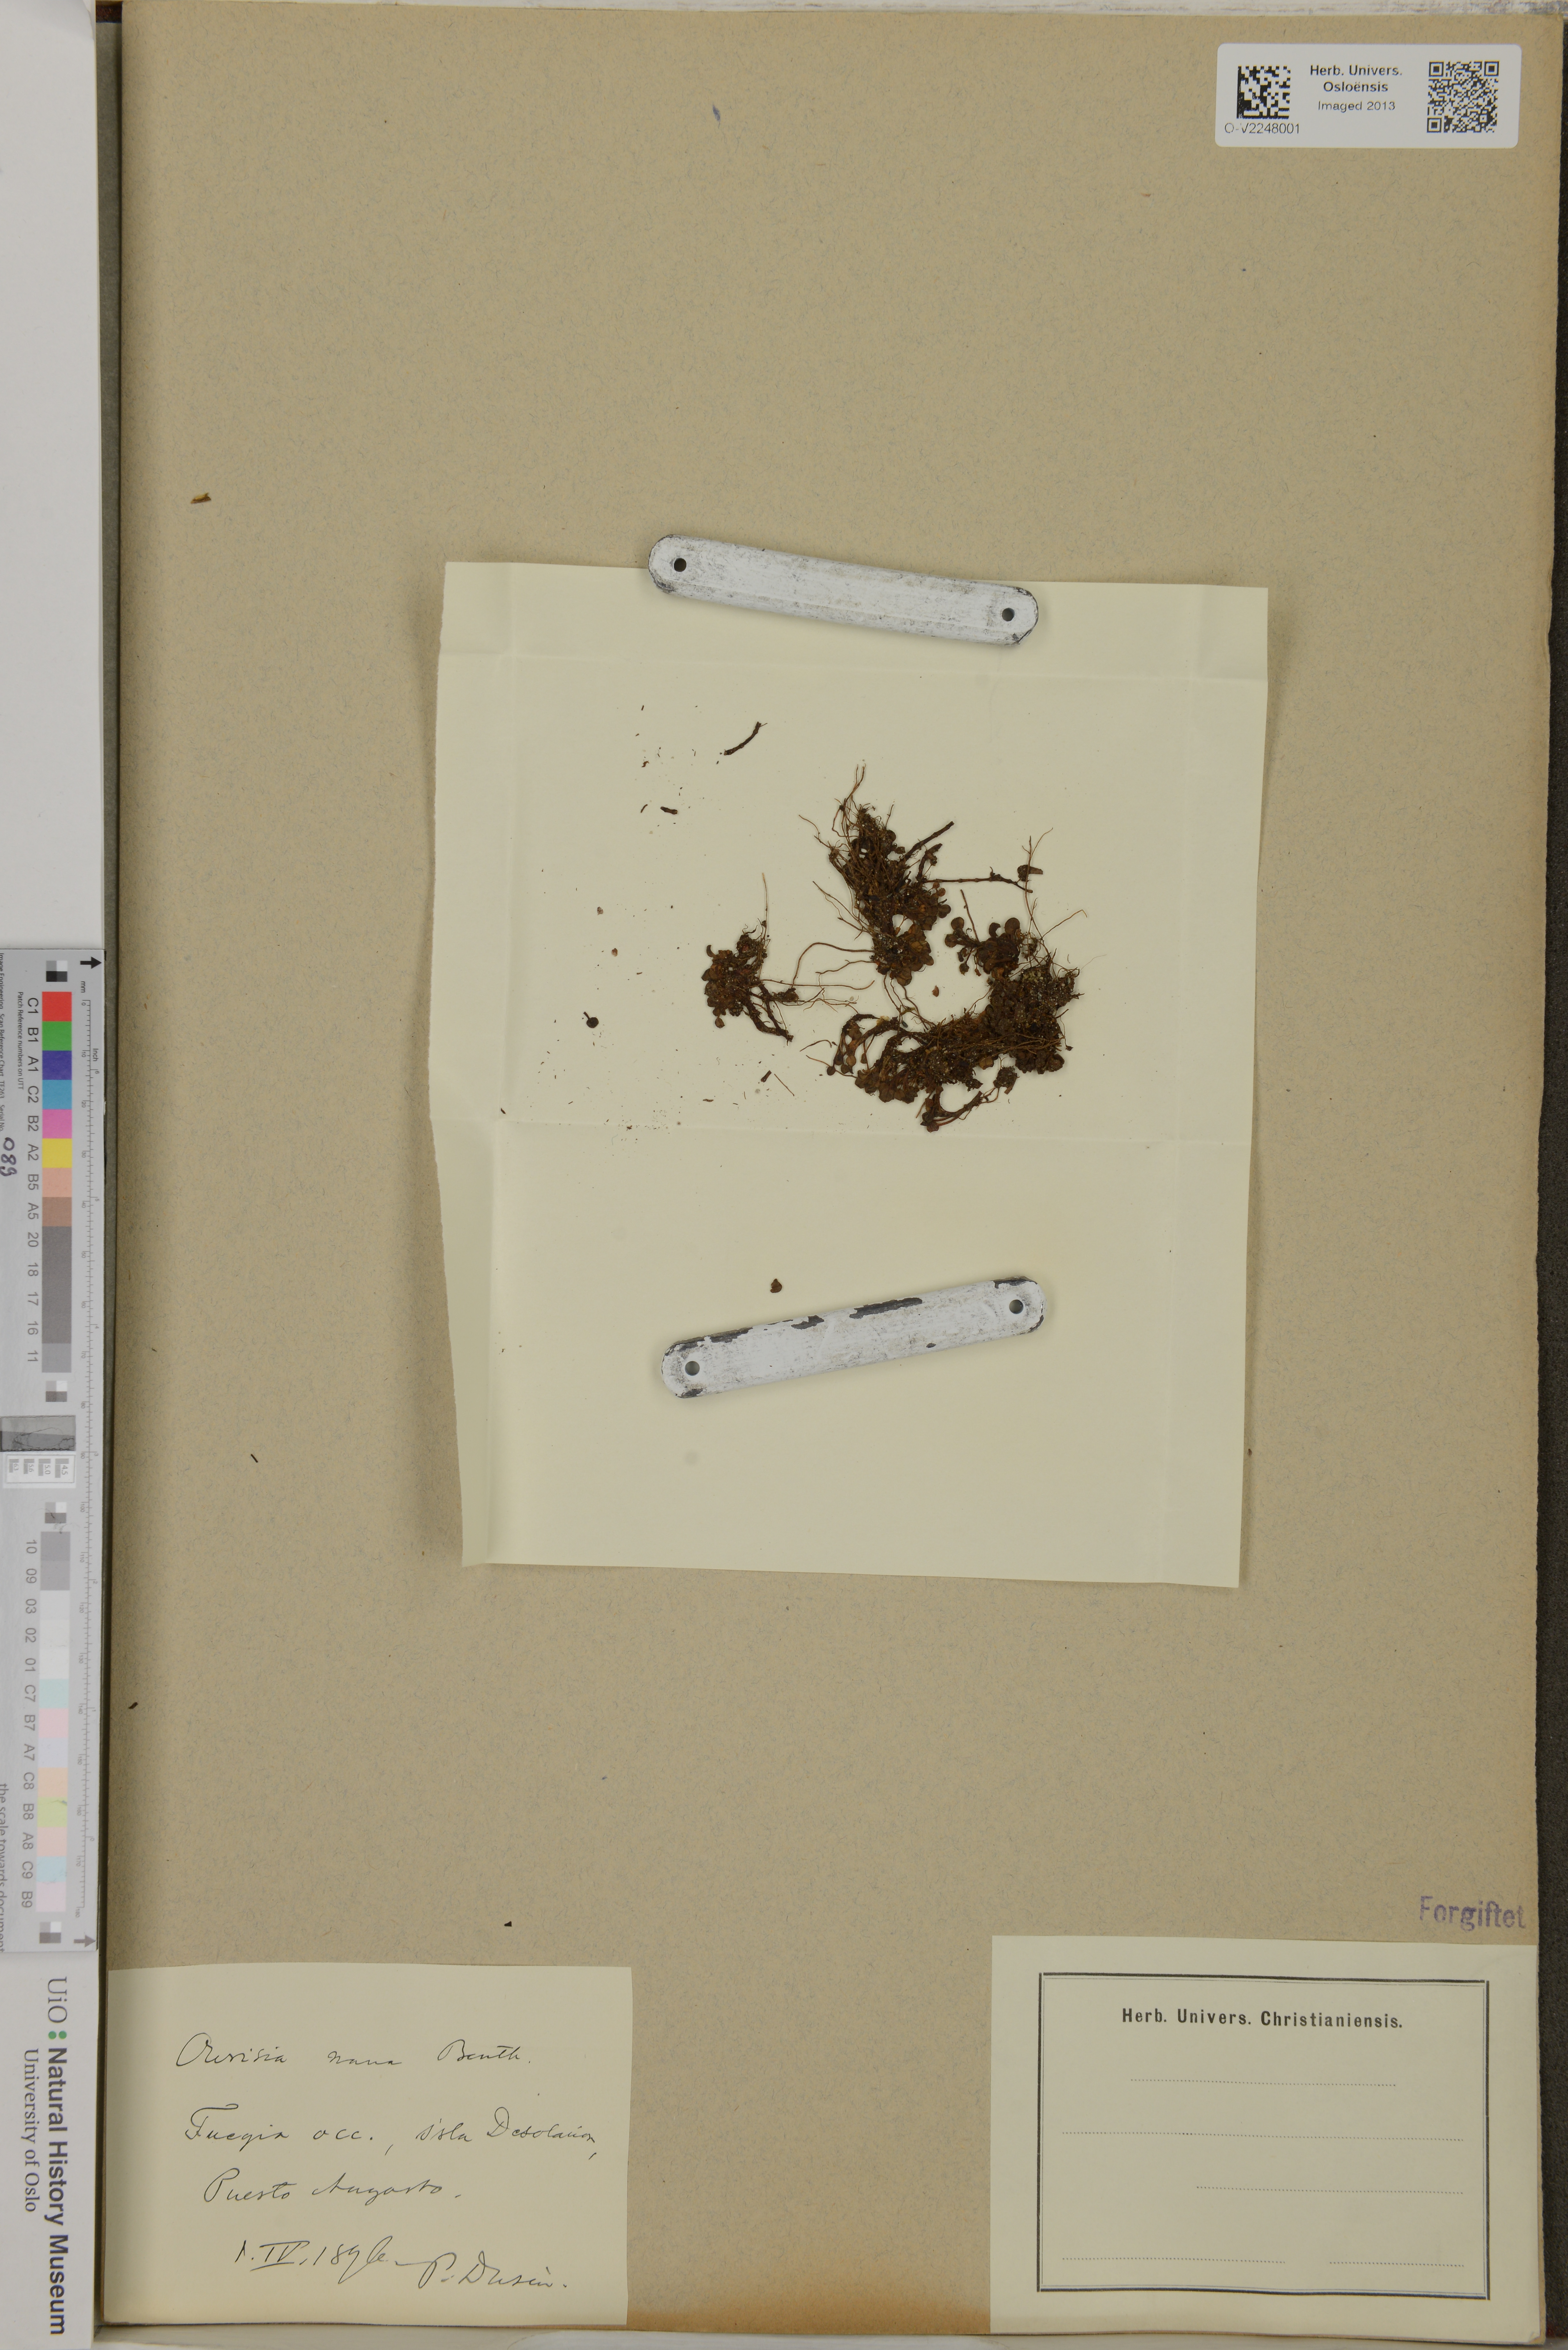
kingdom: Plantae
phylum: Tracheophyta
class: Magnoliopsida
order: Lamiales
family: Plantaginaceae
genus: Ourisia
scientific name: Ourisia muscosa
